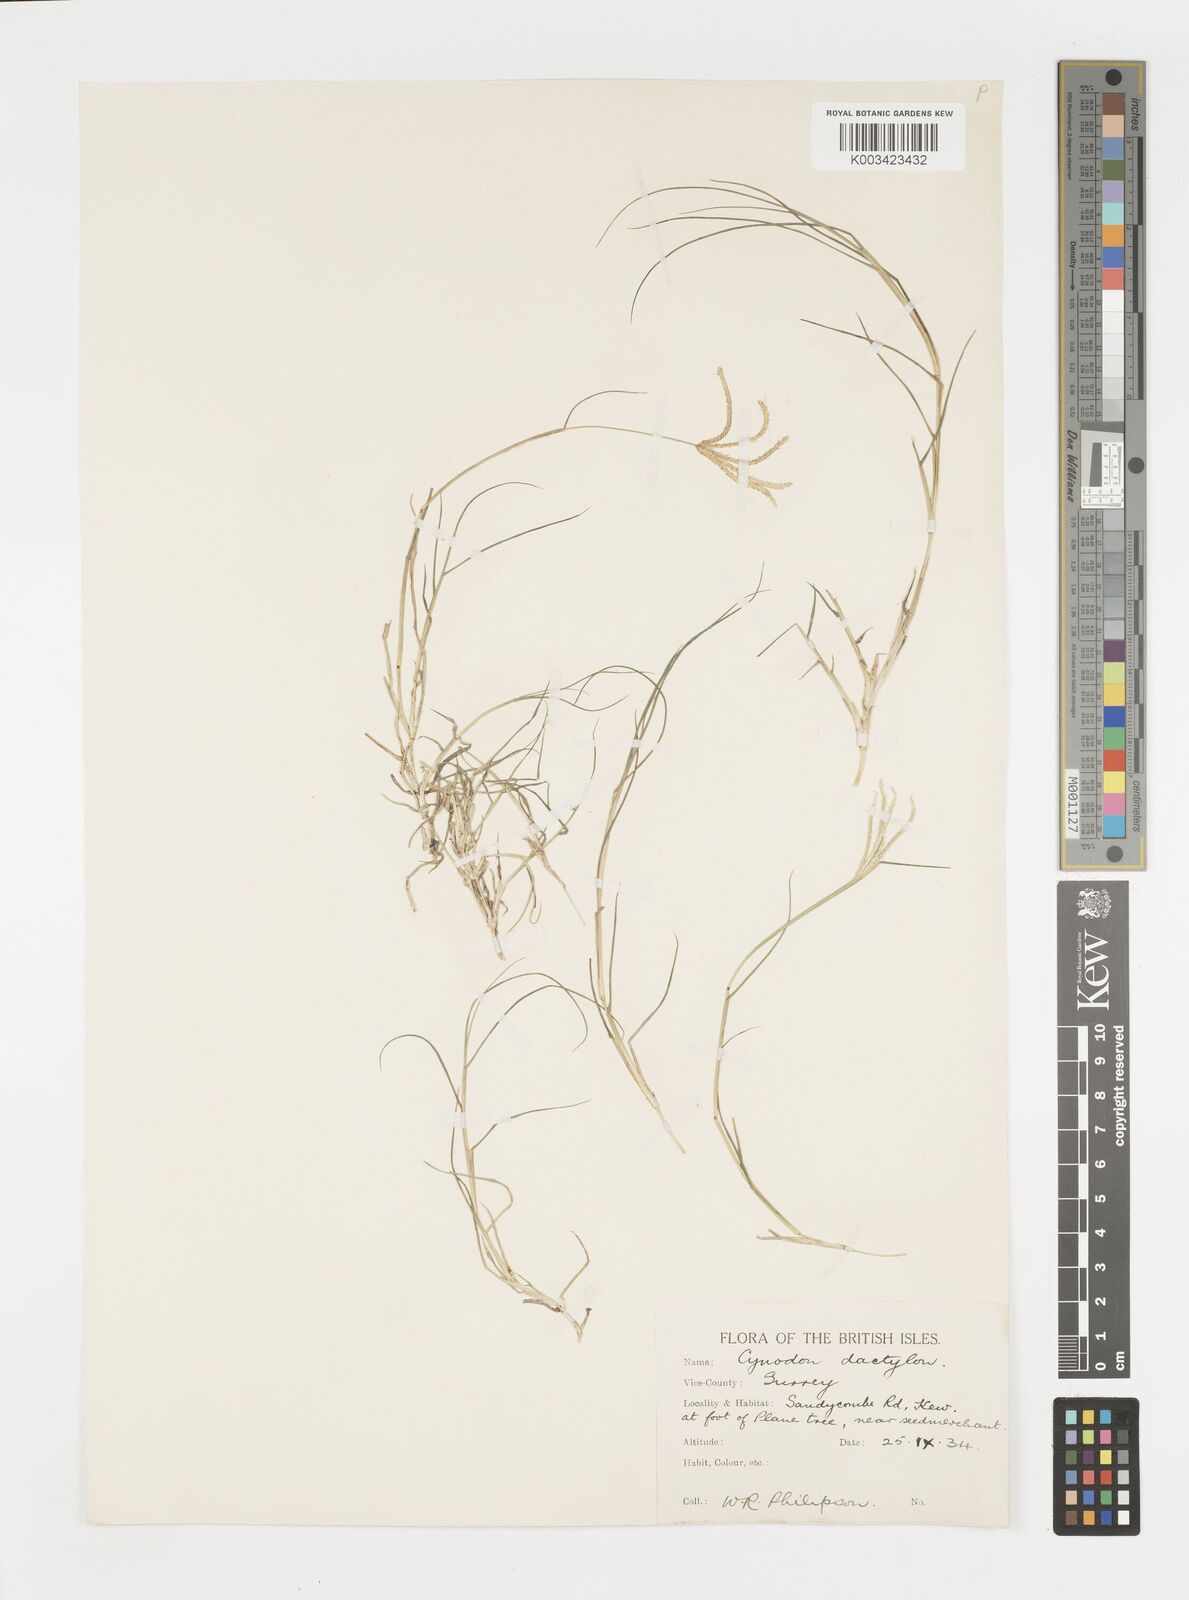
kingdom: Plantae
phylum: Tracheophyta
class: Liliopsida
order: Poales
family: Poaceae
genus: Cynodon
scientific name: Cynodon dactylon
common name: Bermuda grass
